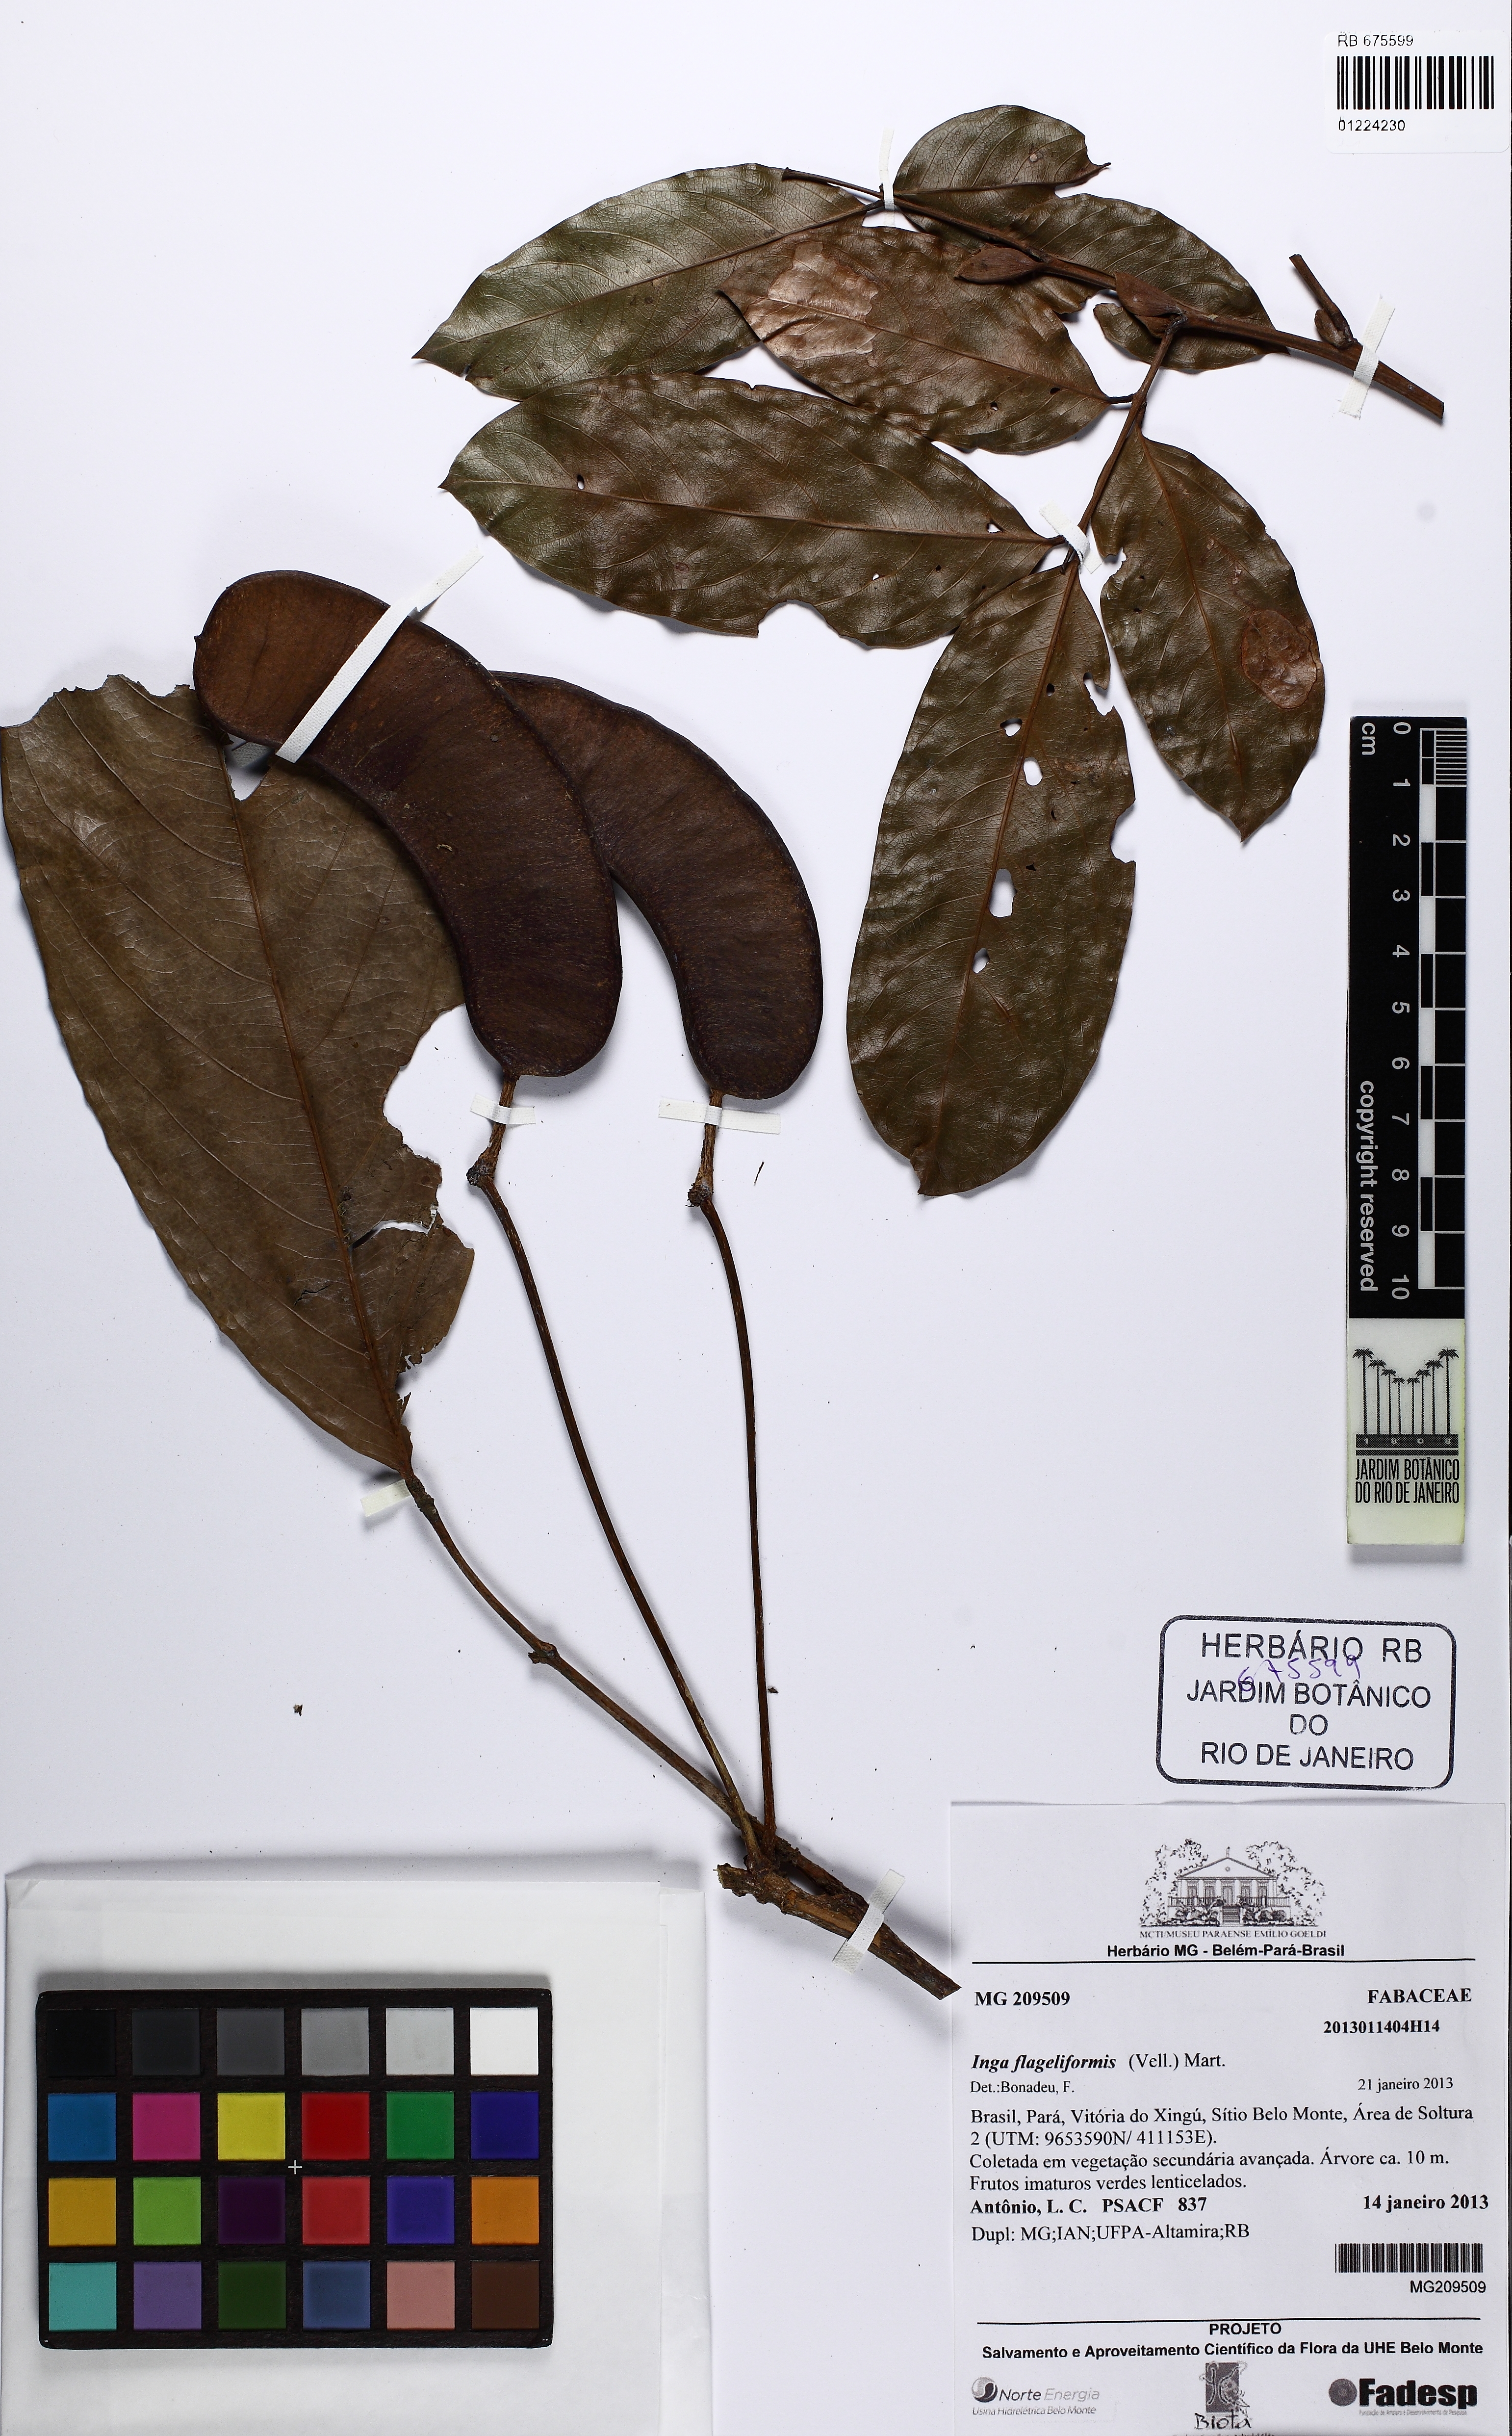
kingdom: Plantae
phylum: Tracheophyta
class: Magnoliopsida
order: Fabales
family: Fabaceae
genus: Inga
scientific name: Inga flagelliformis
